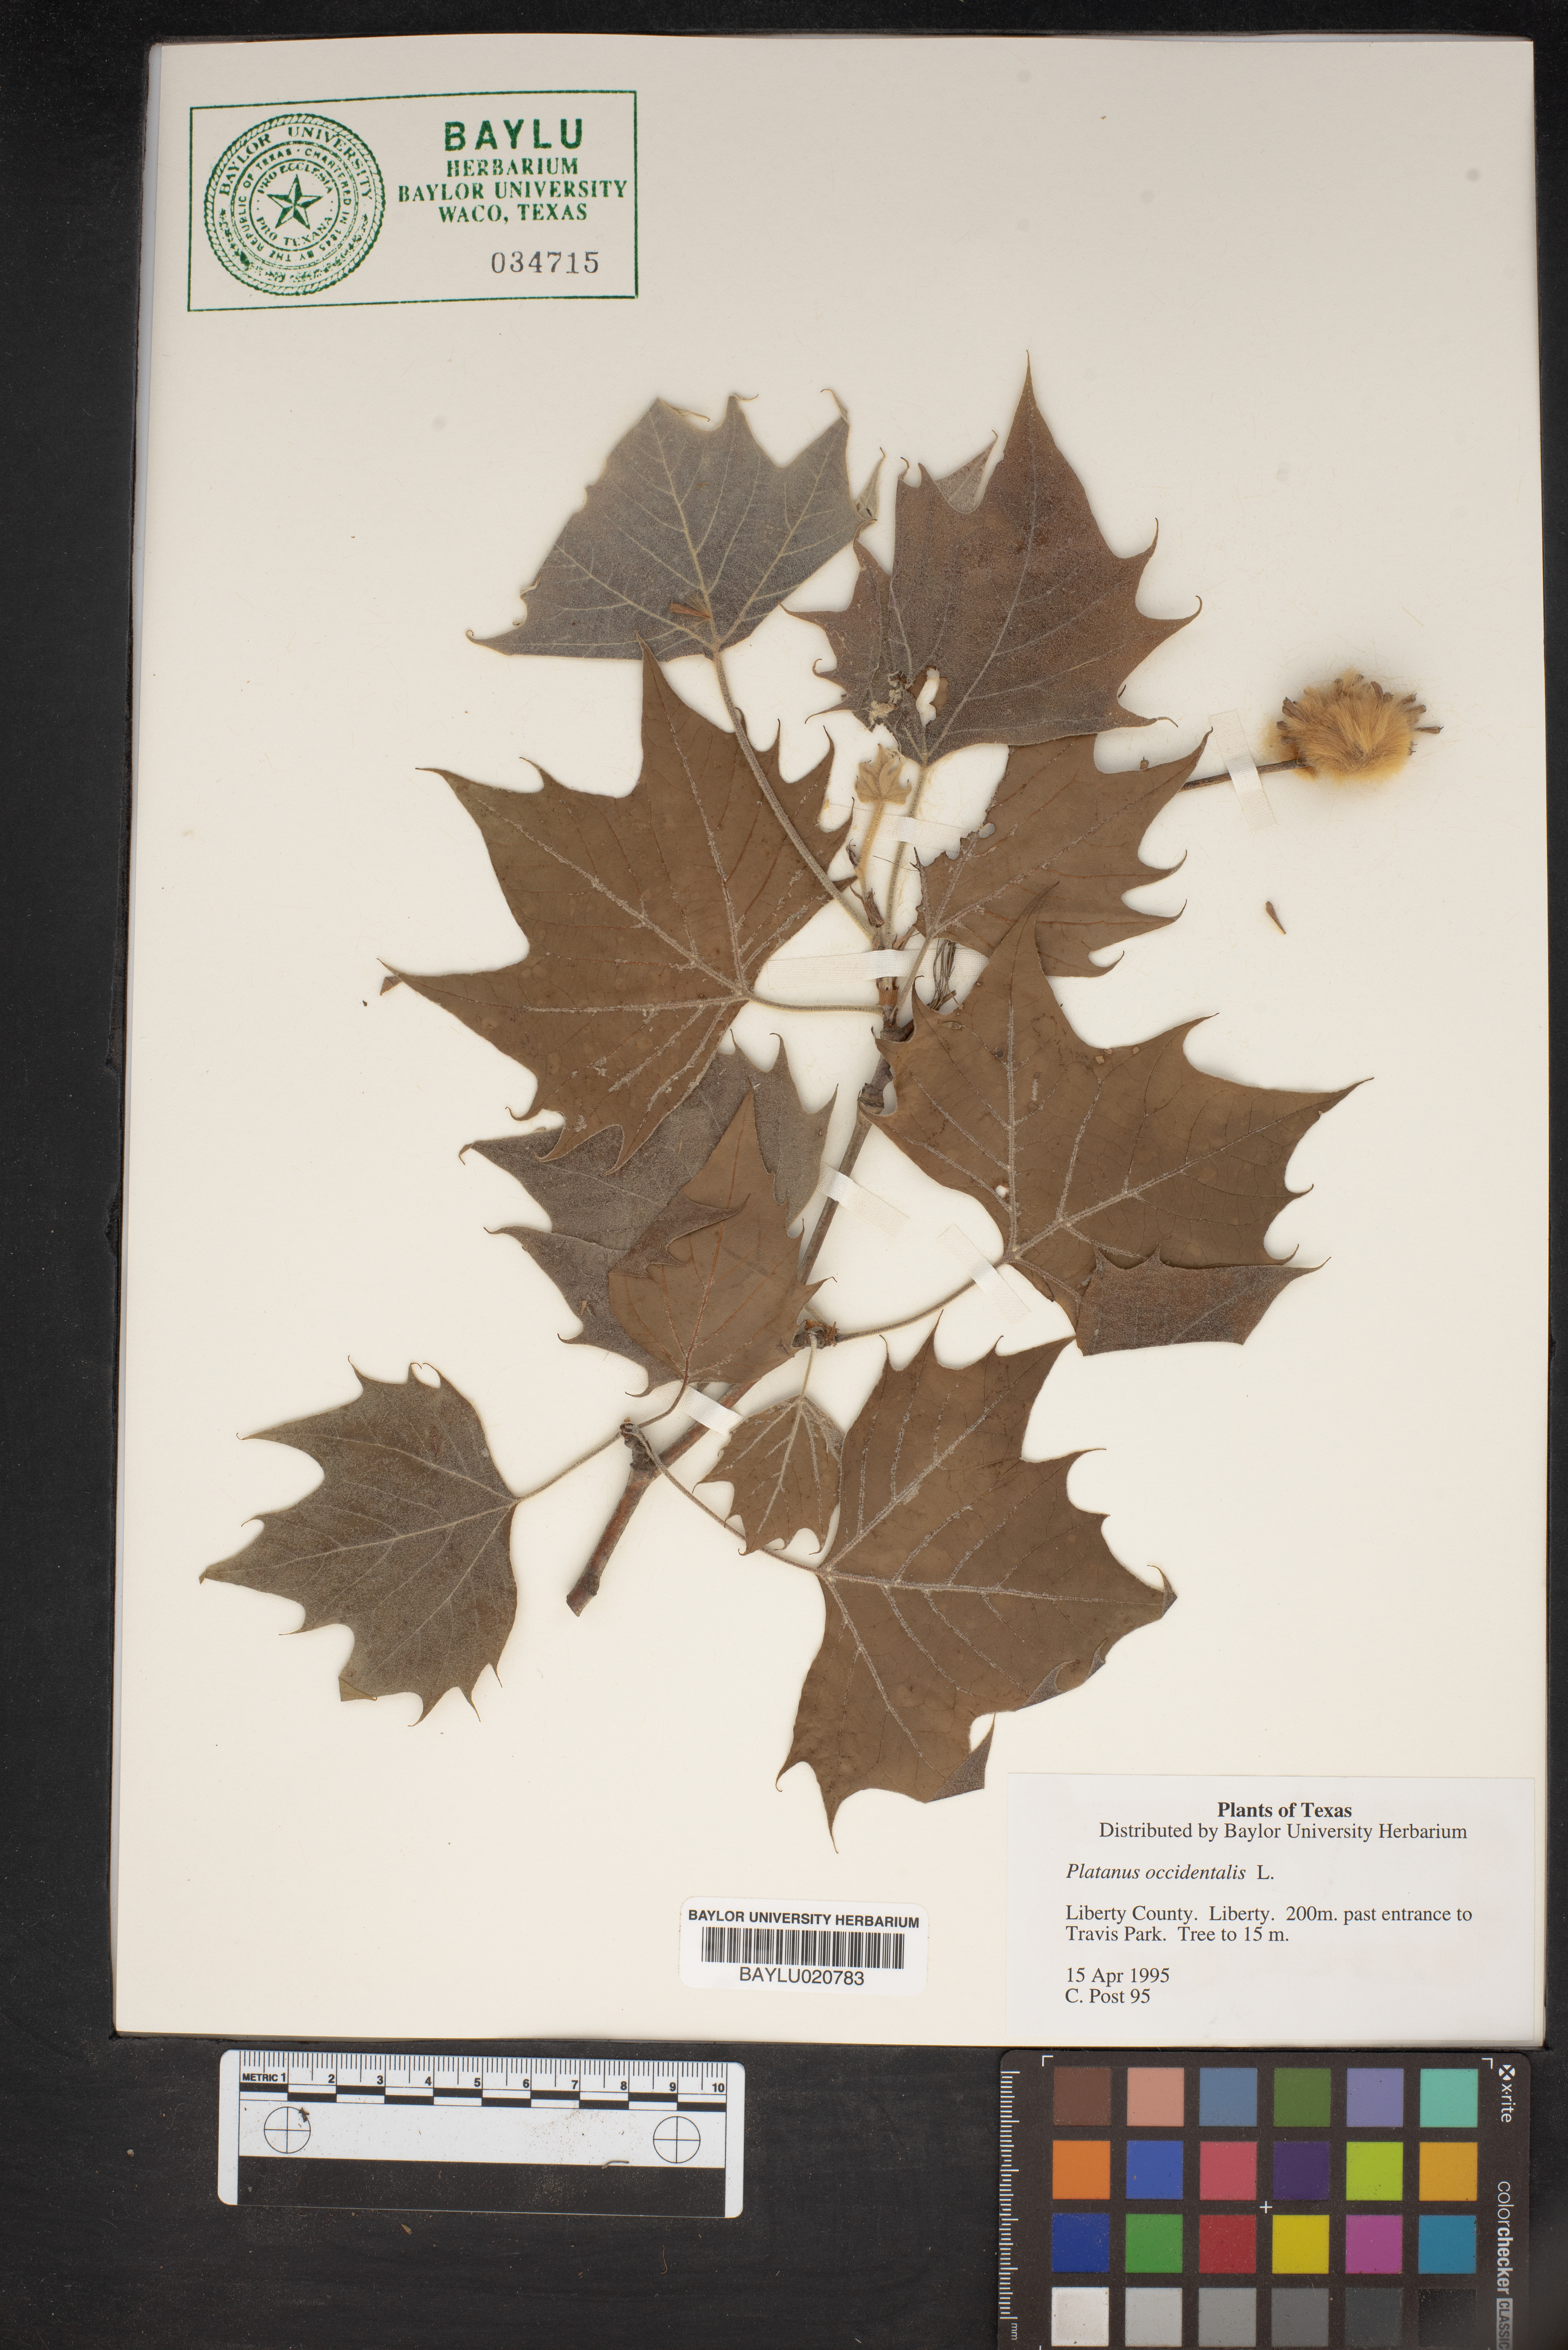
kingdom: Plantae
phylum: Tracheophyta
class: Magnoliopsida
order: Proteales
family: Platanaceae
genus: Platanus
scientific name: Platanus occidentalis
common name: American sycamore
